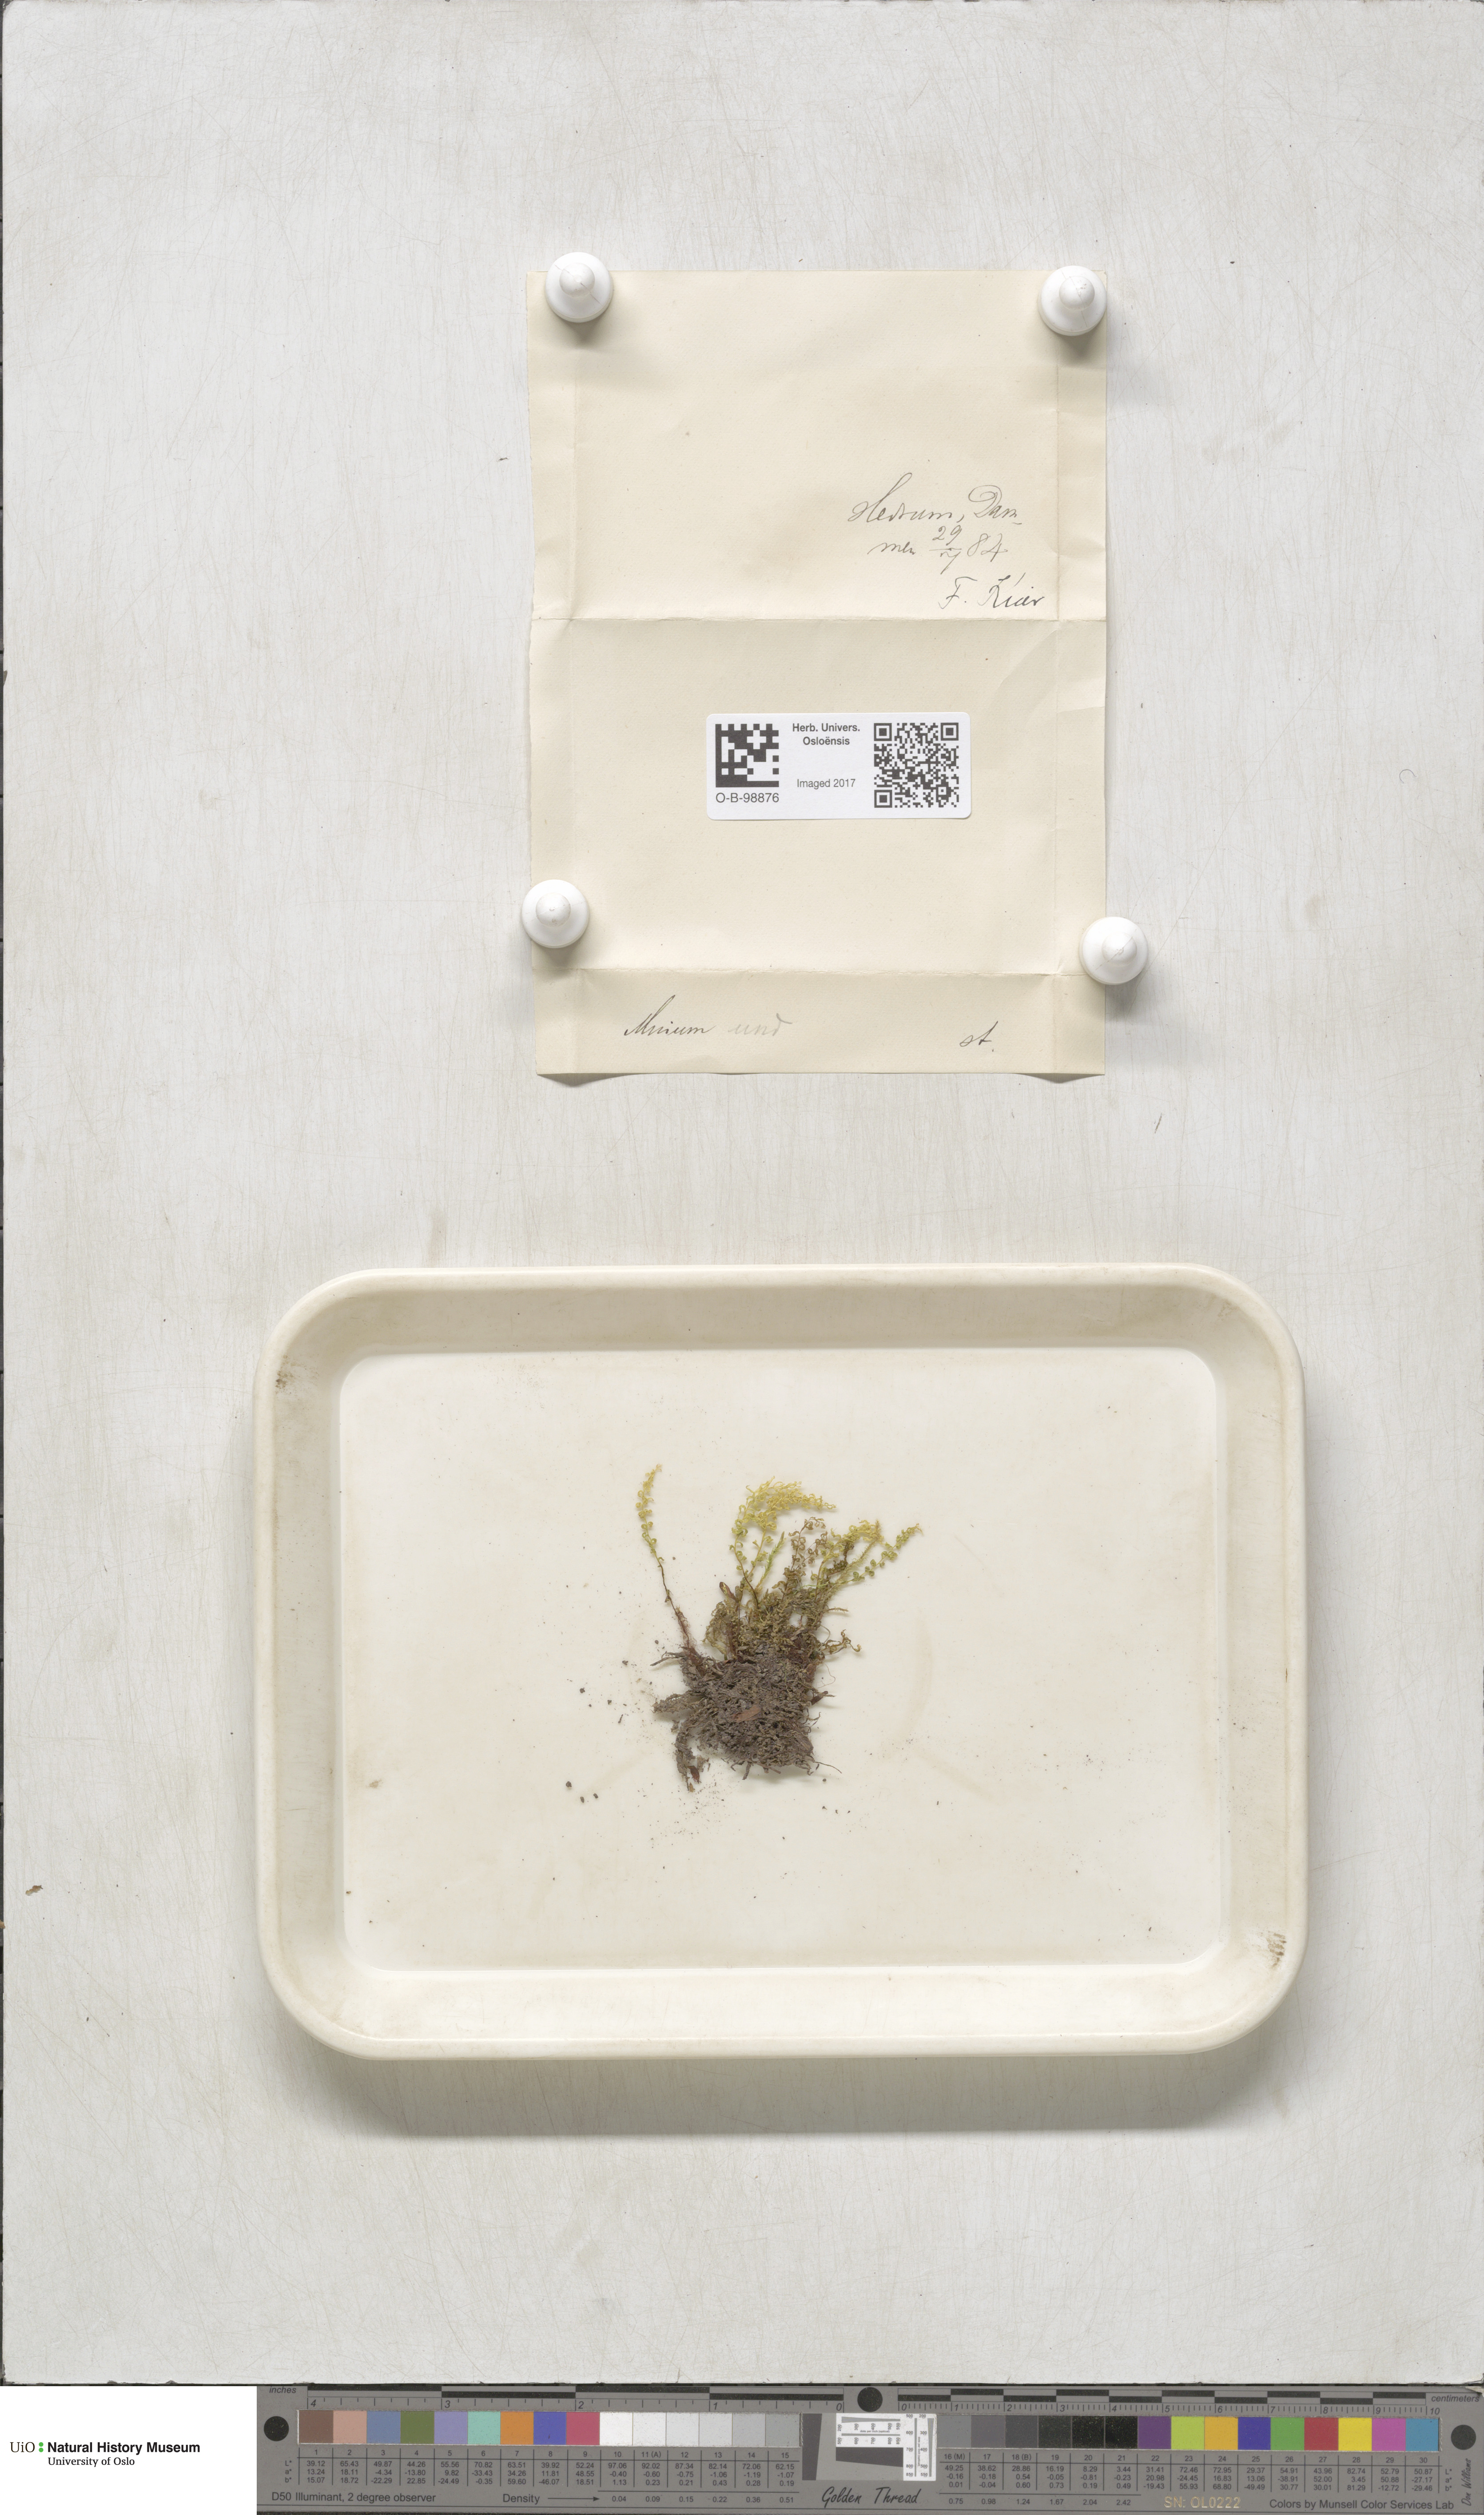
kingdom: Plantae
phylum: Bryophyta
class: Bryopsida
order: Bryales
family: Mniaceae
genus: Plagiomnium
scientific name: Plagiomnium undulatum
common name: Hart's-tongue thyme-moss
